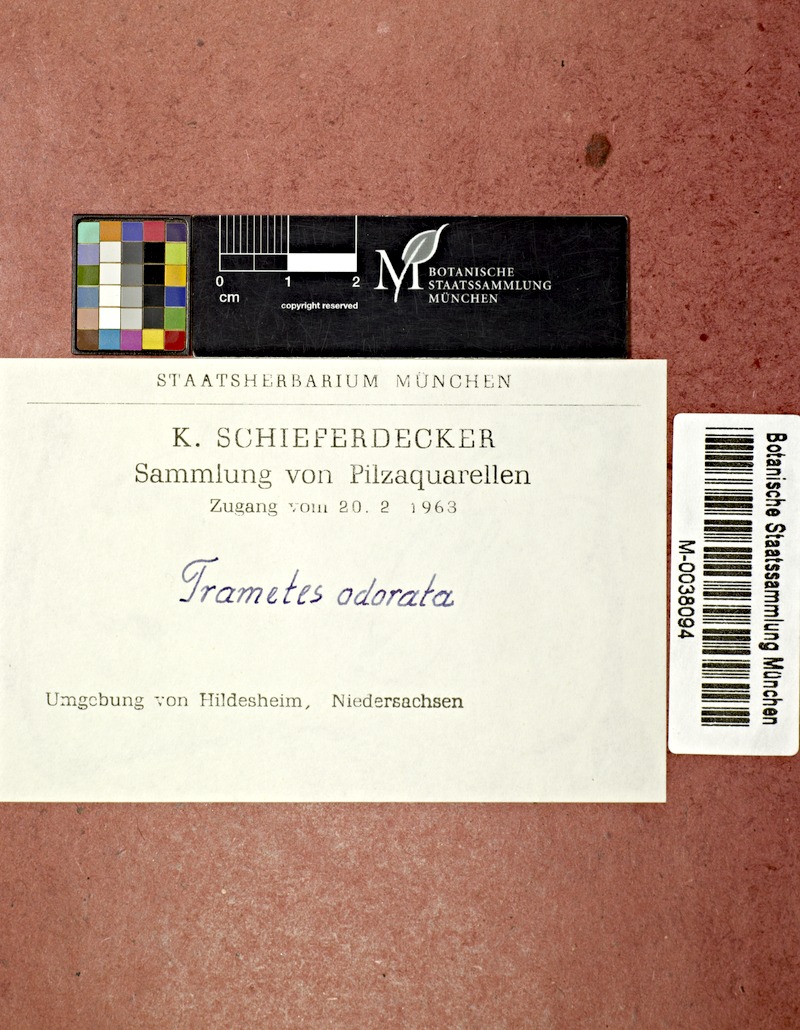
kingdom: Fungi
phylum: Basidiomycota
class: Agaricomycetes
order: Gloeophyllales
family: Gloeophyllaceae
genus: Gloeophyllum
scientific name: Gloeophyllum odoratum
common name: Anise mazegill
